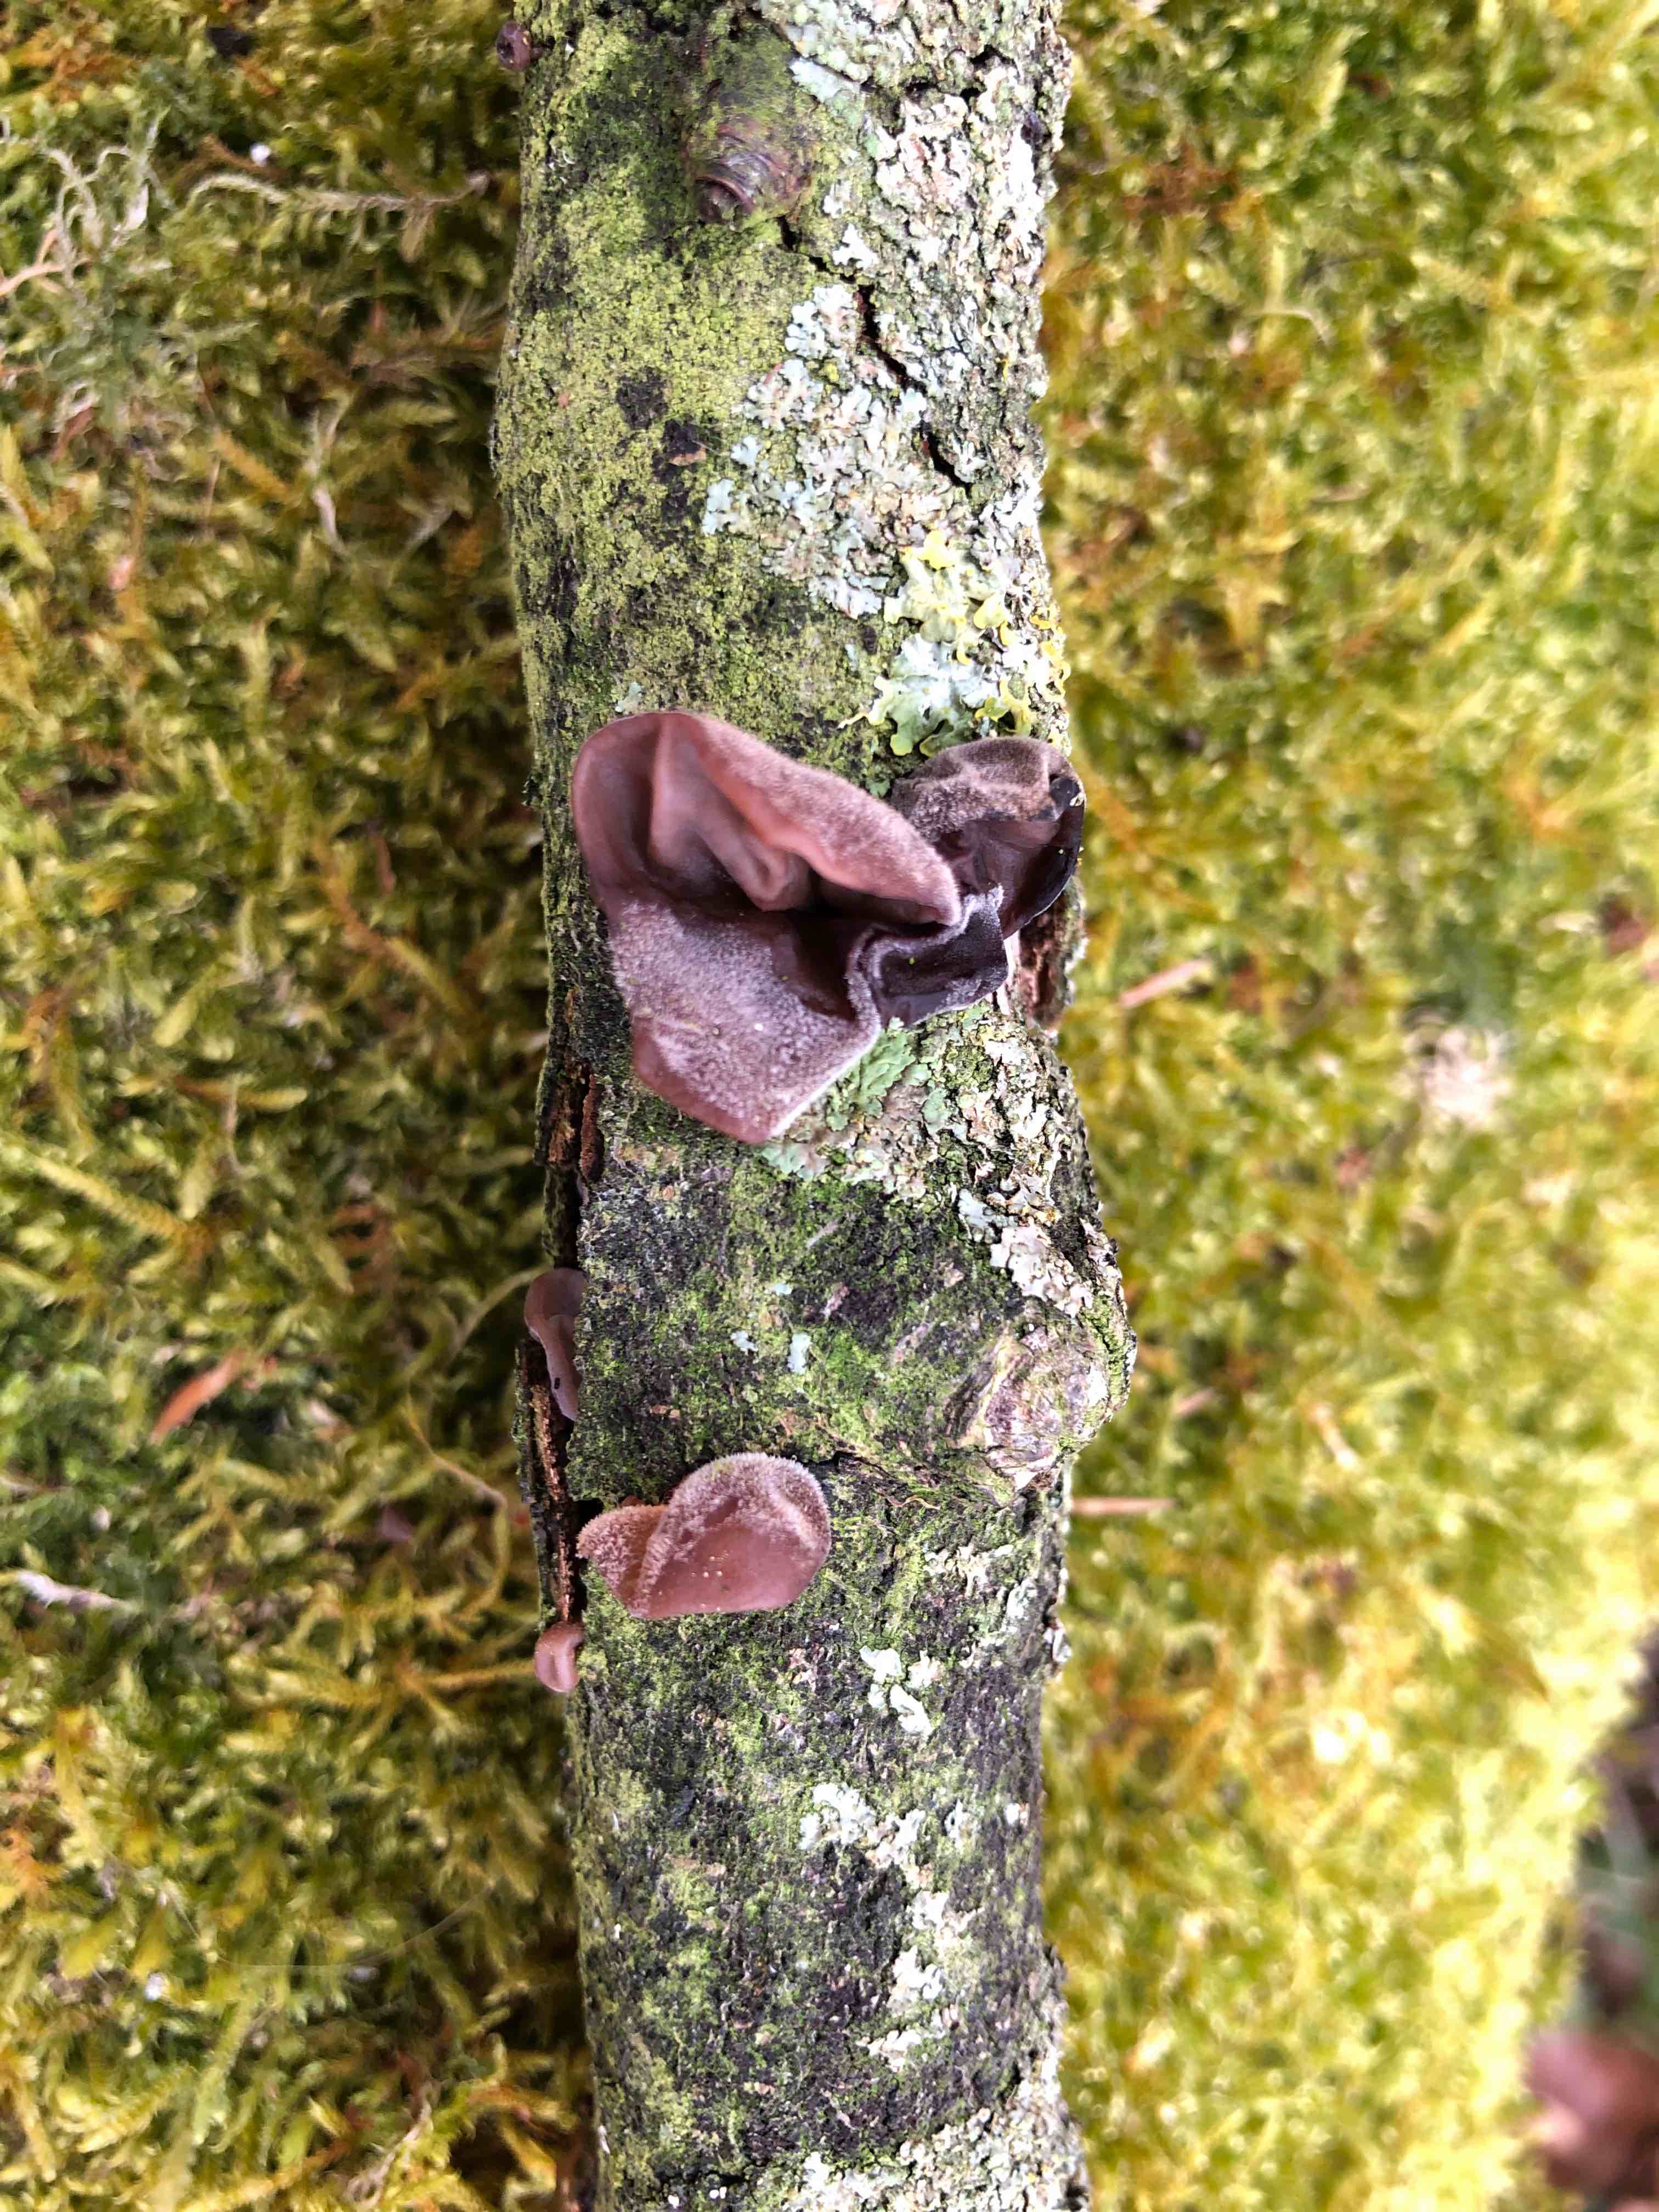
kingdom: Fungi
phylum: Basidiomycota
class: Agaricomycetes
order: Auriculariales
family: Auriculariaceae
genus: Auricularia
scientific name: Auricularia auricula-judae
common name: almindelig judasøre
